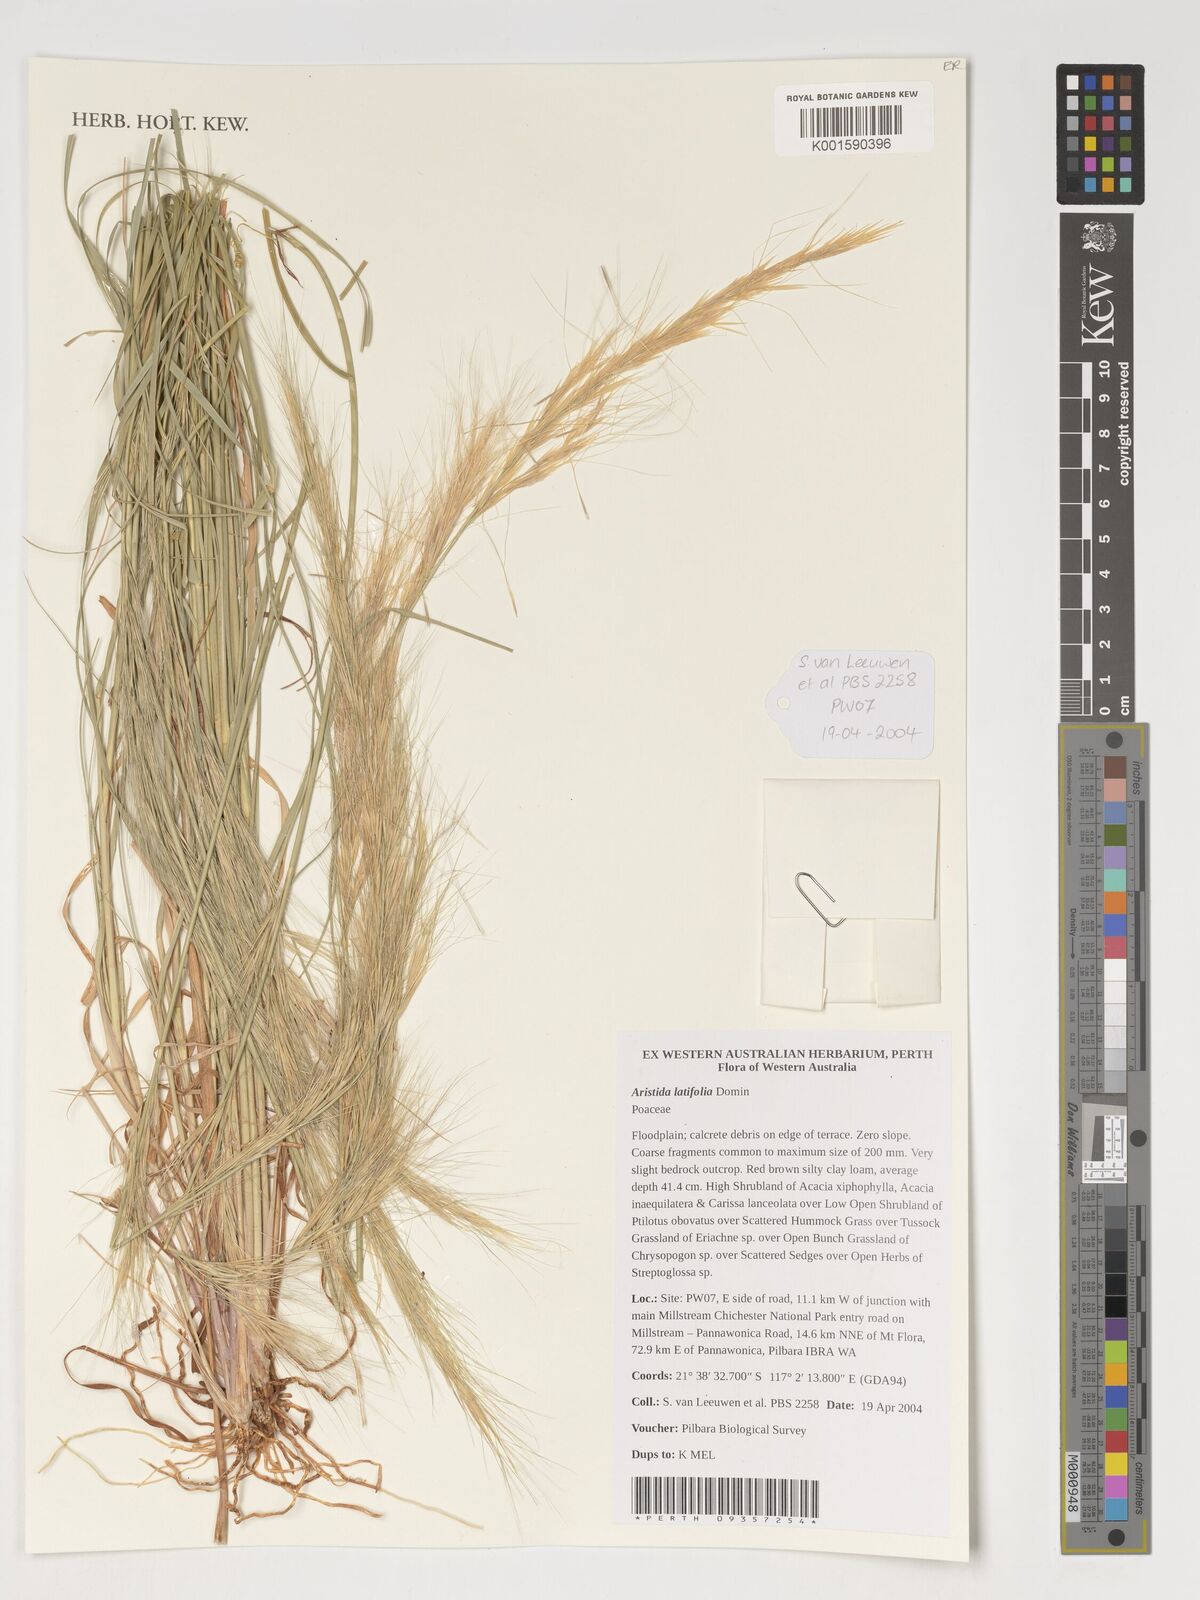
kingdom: Plantae
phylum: Tracheophyta
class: Liliopsida
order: Poales
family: Poaceae
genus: Aristida
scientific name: Aristida latifolia
